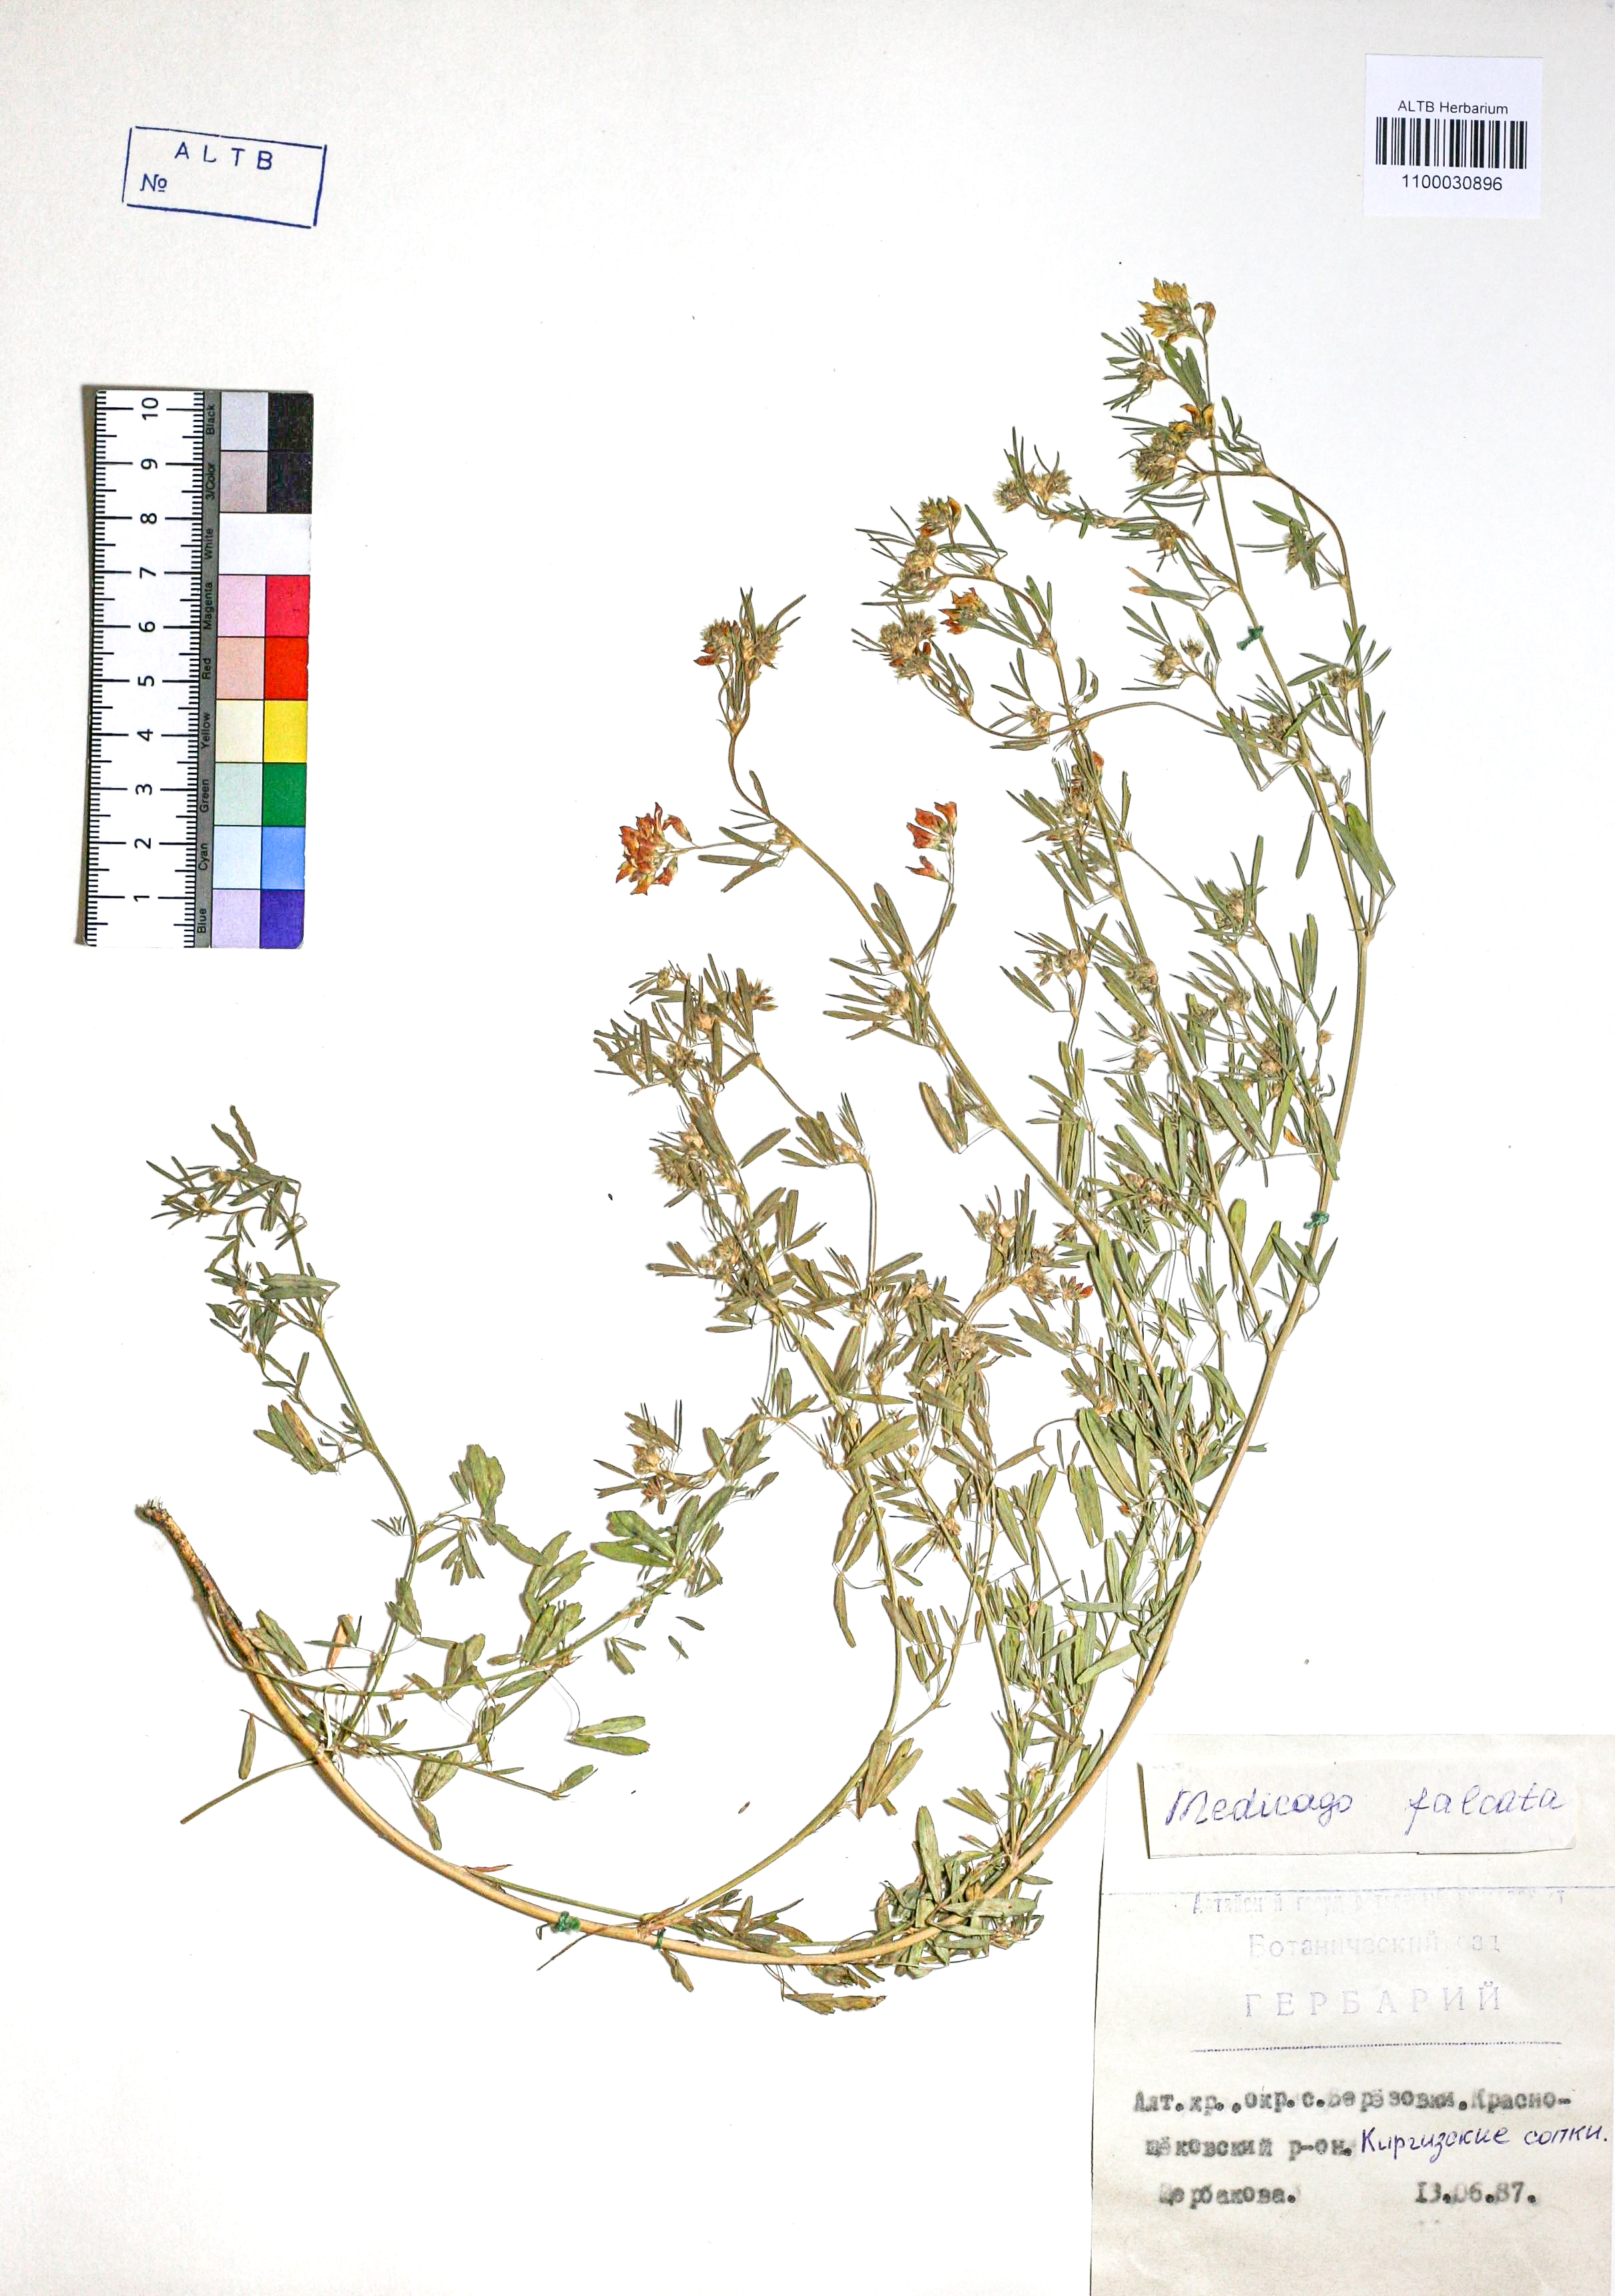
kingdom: Plantae
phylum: Tracheophyta
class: Magnoliopsida
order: Fabales
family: Fabaceae
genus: Medicago
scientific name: Medicago falcata
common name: Sickle medick
